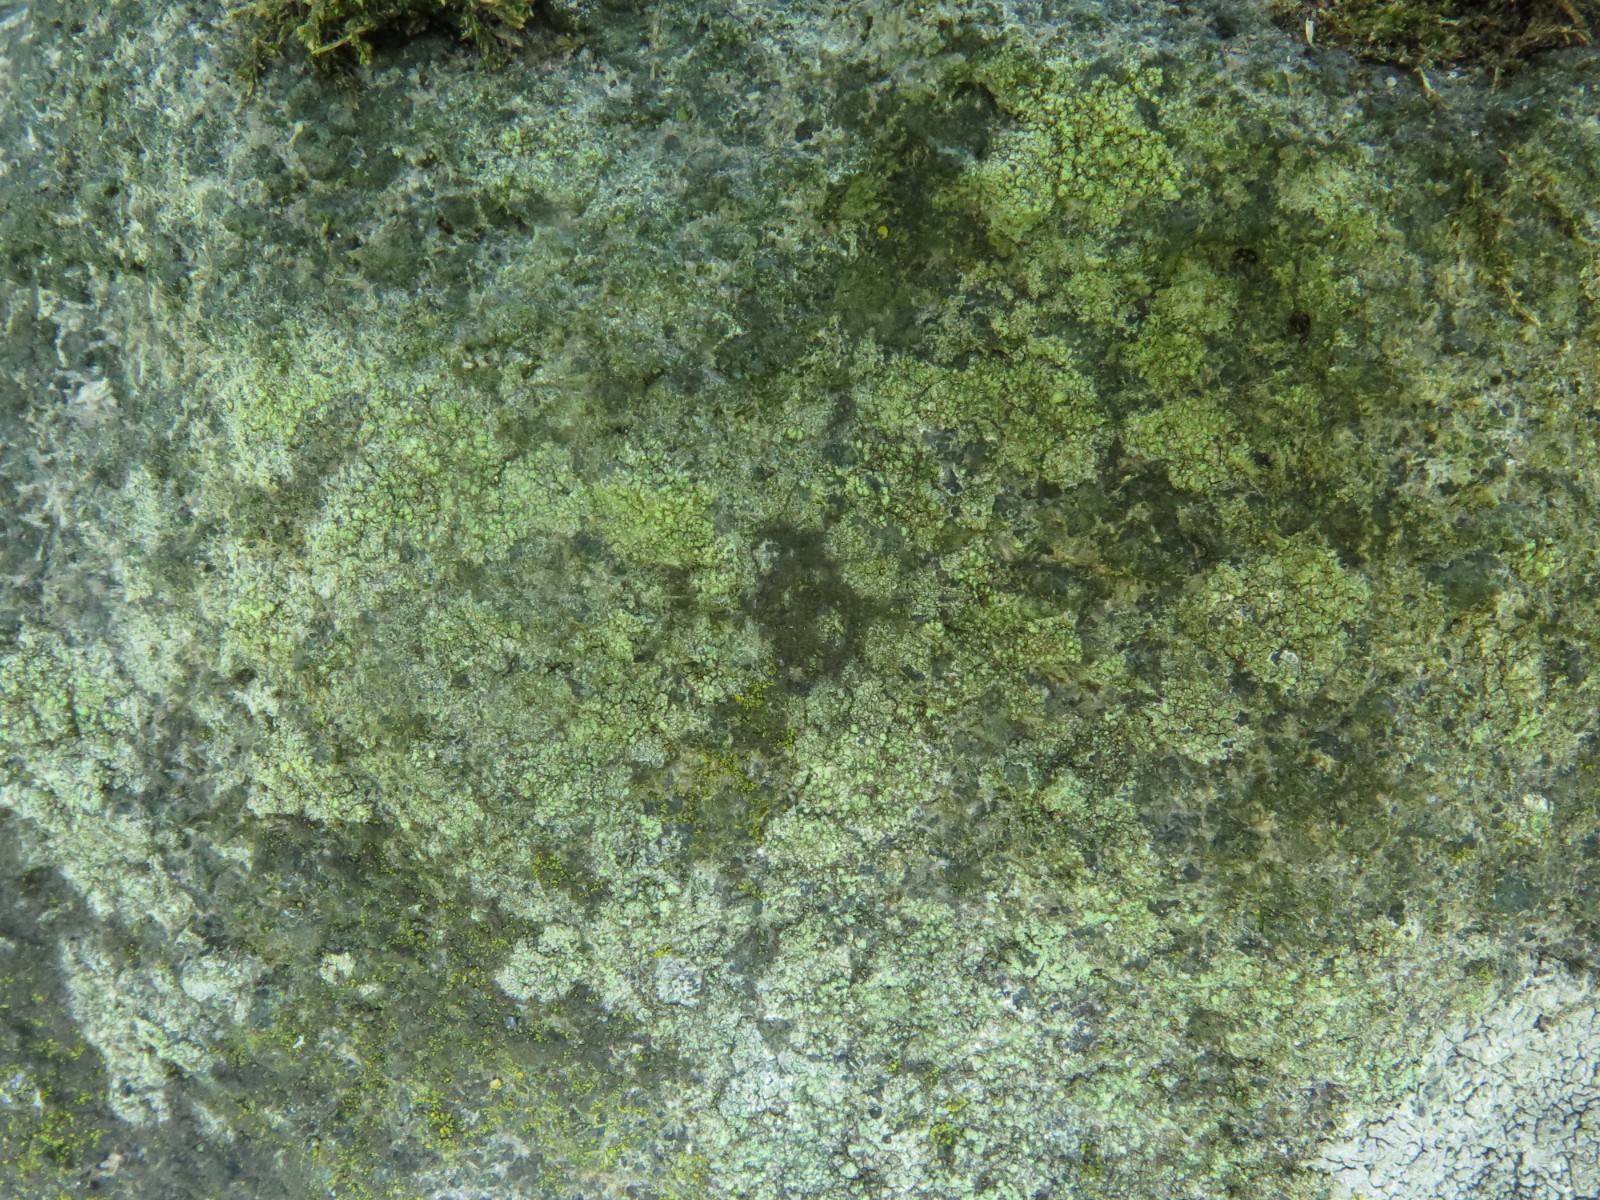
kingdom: Fungi
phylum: Ascomycota
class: Lecanoromycetes
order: Lecanorales
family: Lecanoraceae
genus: Lecidella
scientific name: Lecidella scabra
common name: skurvet skivelav
